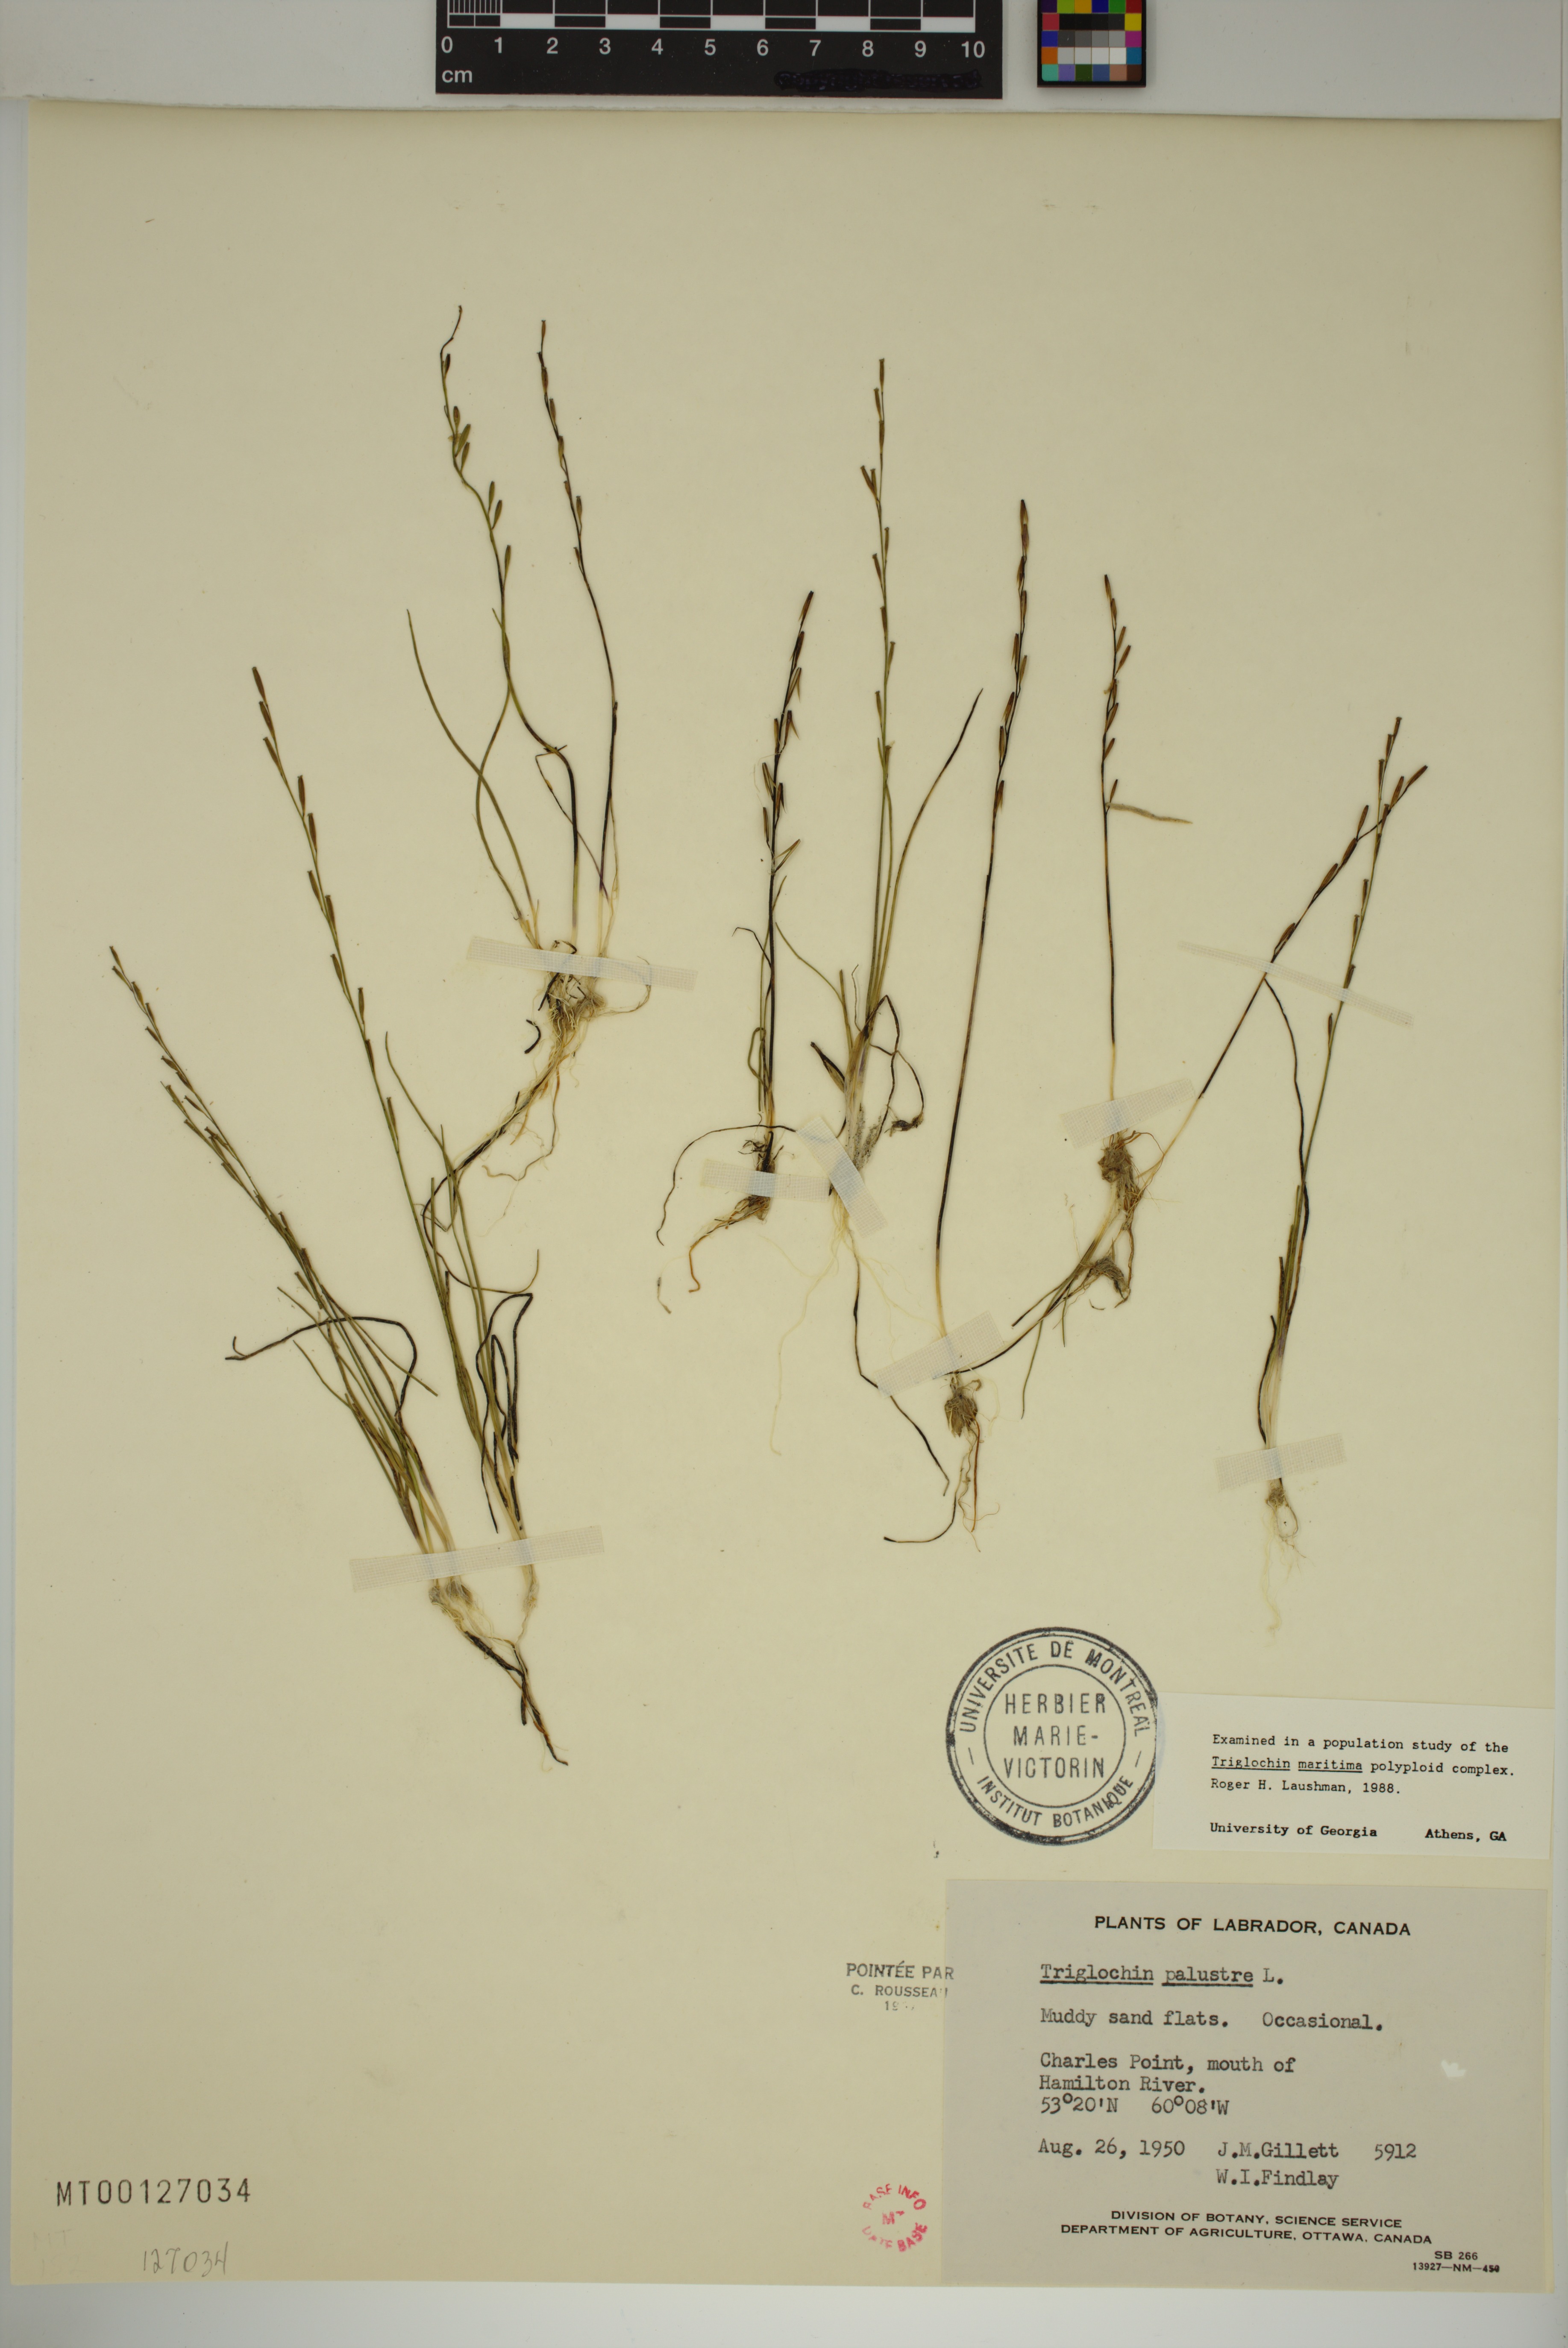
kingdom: Plantae
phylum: Tracheophyta
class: Liliopsida
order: Alismatales
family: Juncaginaceae
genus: Triglochin
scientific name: Triglochin palustris
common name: Marsh arrowgrass
